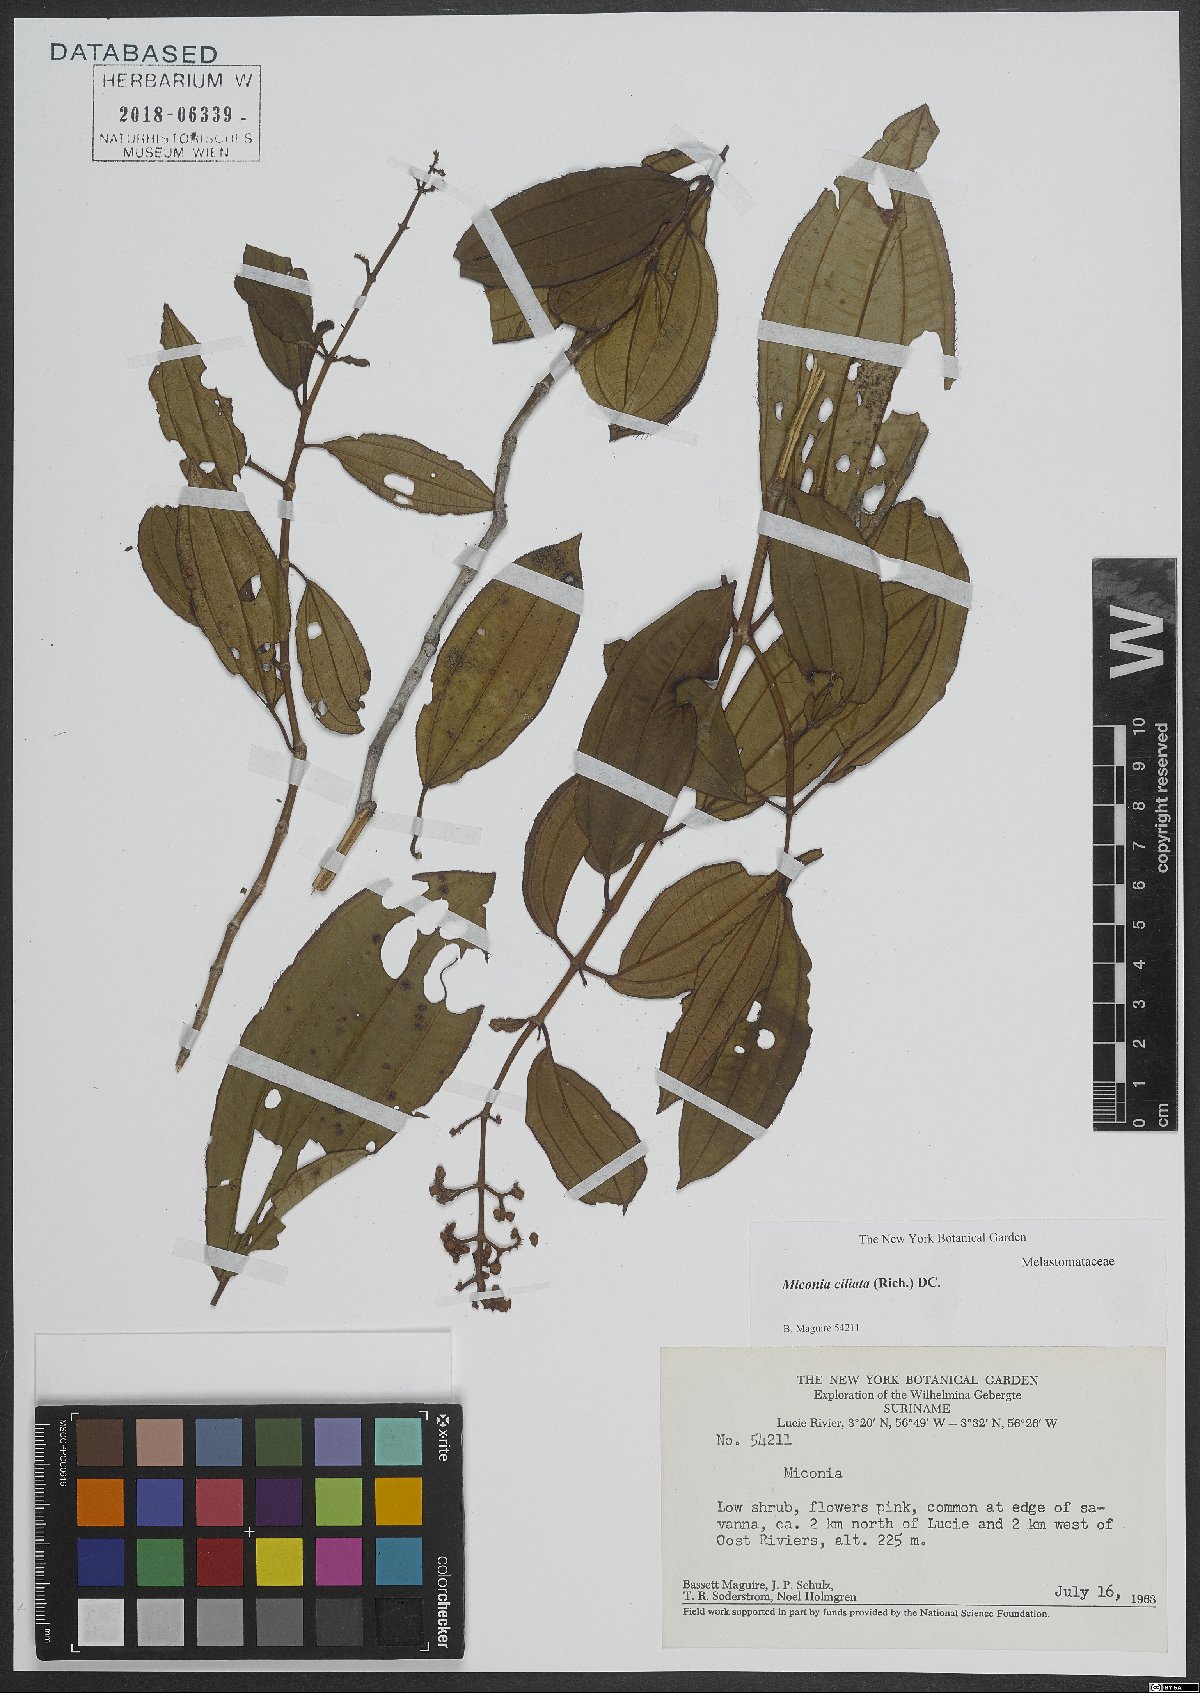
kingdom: Plantae
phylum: Tracheophyta
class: Magnoliopsida
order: Myrtales
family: Melastomataceae
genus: Miconia
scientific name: Miconia ciliata
